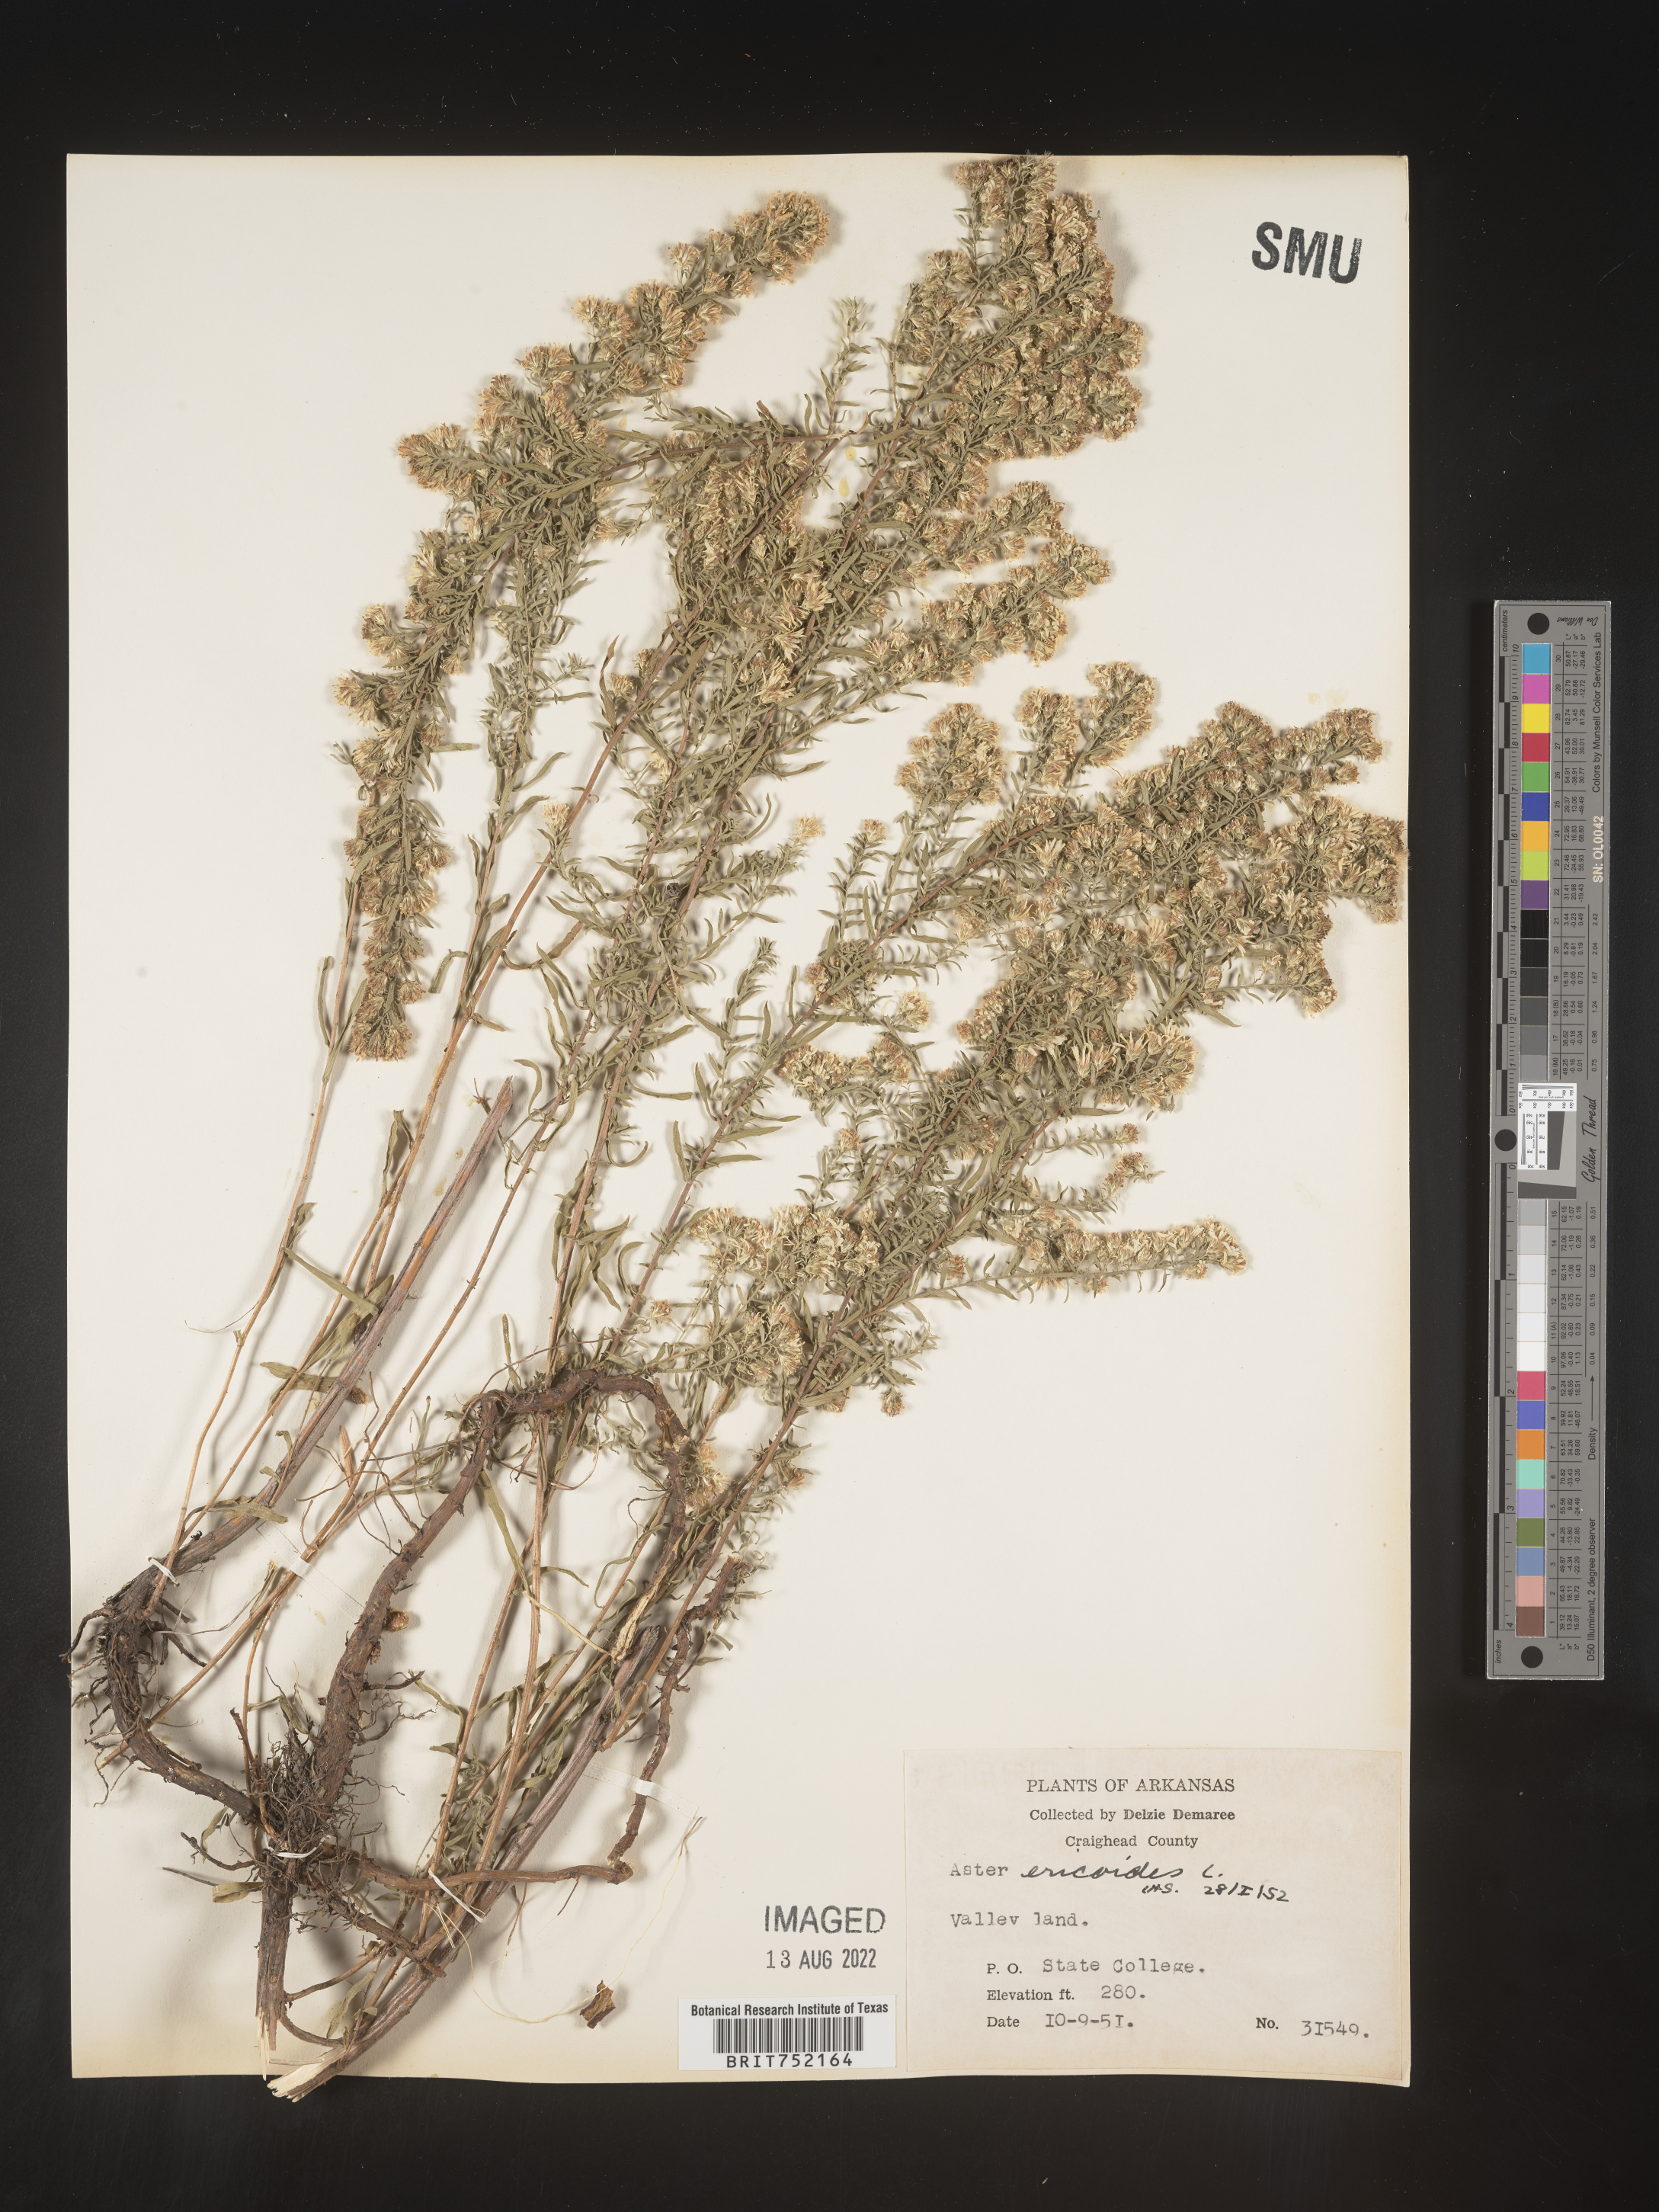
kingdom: Plantae
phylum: Tracheophyta
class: Magnoliopsida
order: Asterales
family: Asteraceae
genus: Symphyotrichum
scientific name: Symphyotrichum ericoides
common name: Heath aster
